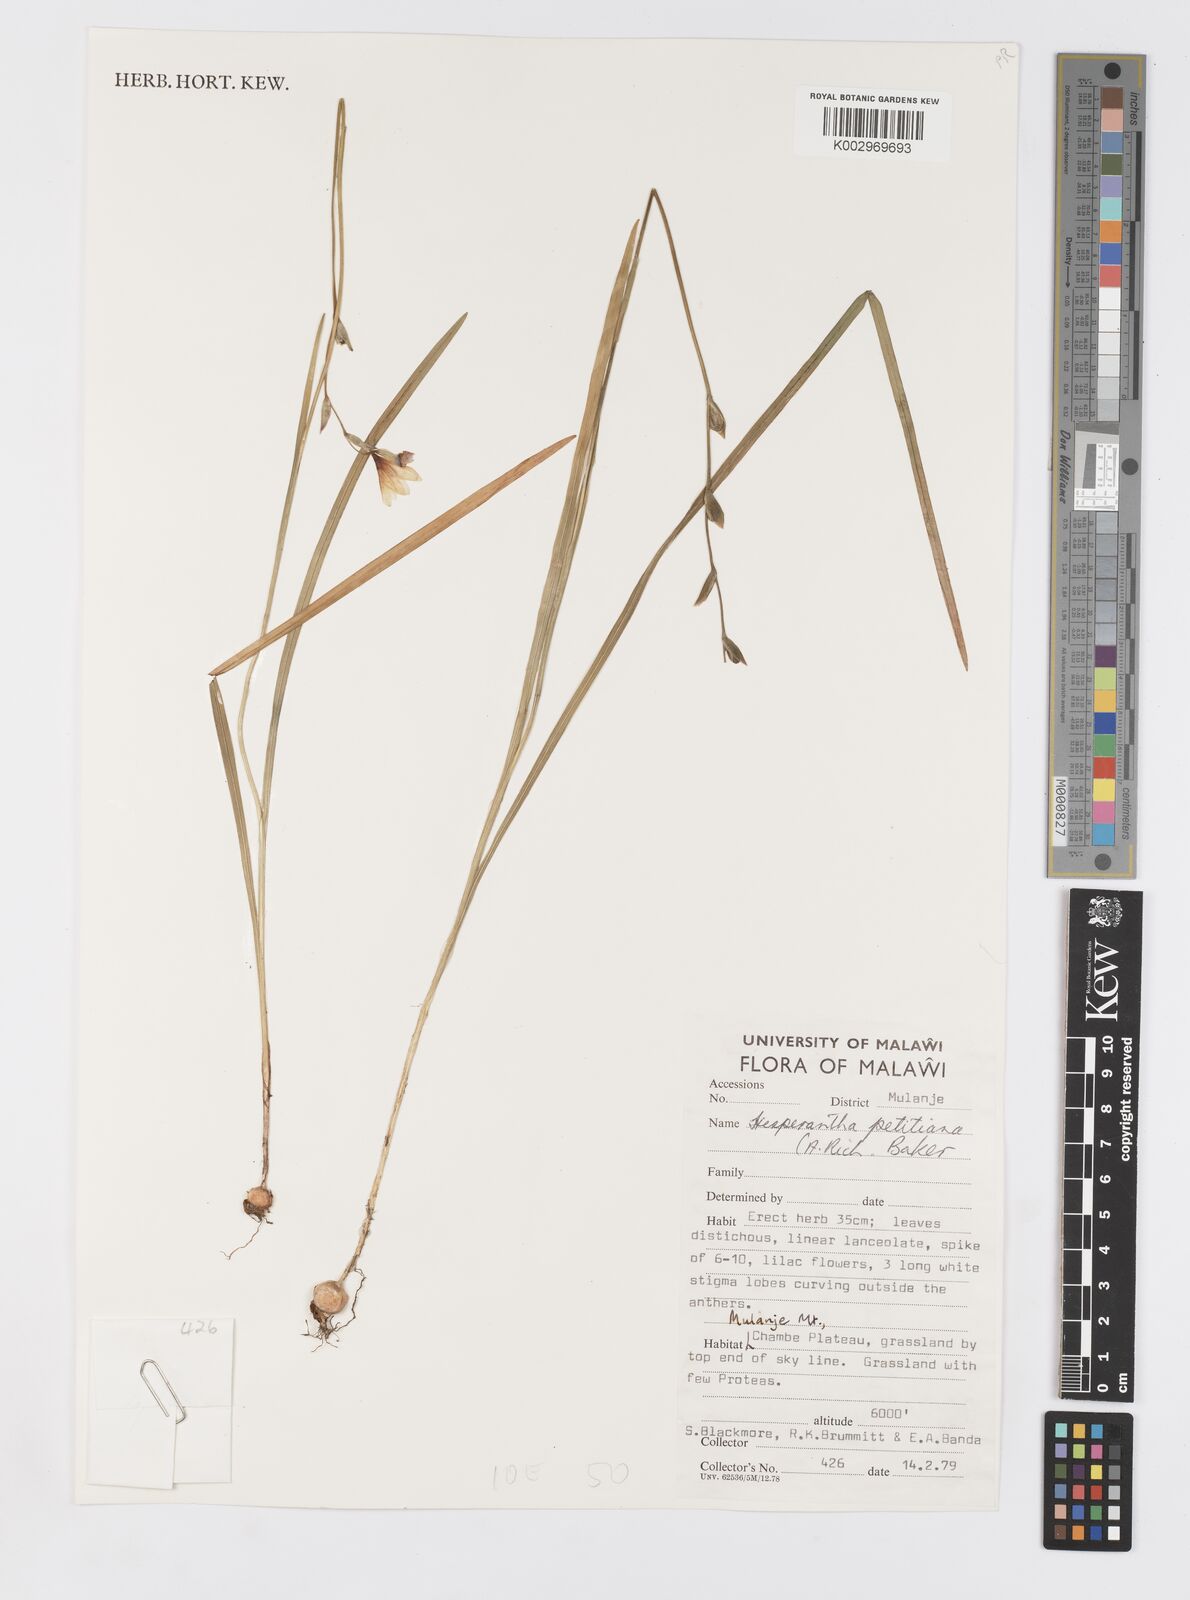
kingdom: Plantae
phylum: Tracheophyta
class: Liliopsida
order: Asparagales
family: Iridaceae
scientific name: Iridaceae
